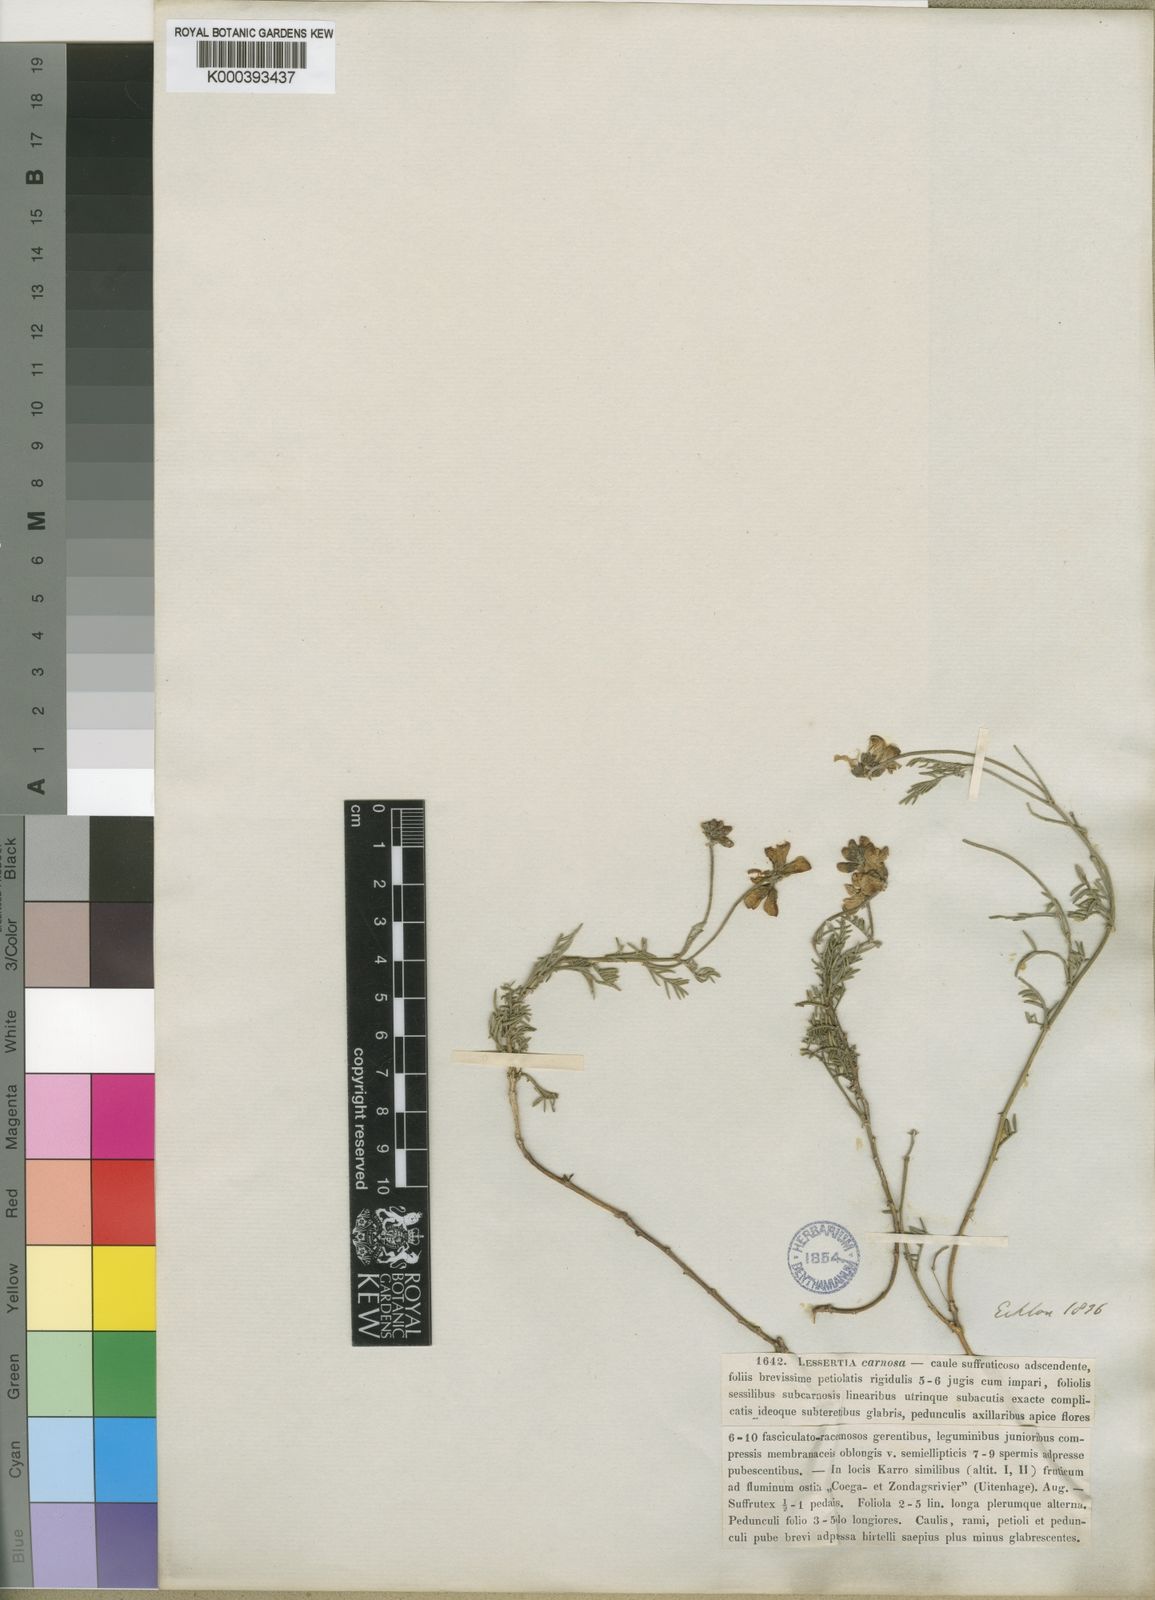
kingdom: Plantae
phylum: Tracheophyta
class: Magnoliopsida
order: Fabales
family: Fabaceae
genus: Lessertia
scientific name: Lessertia carnosa
